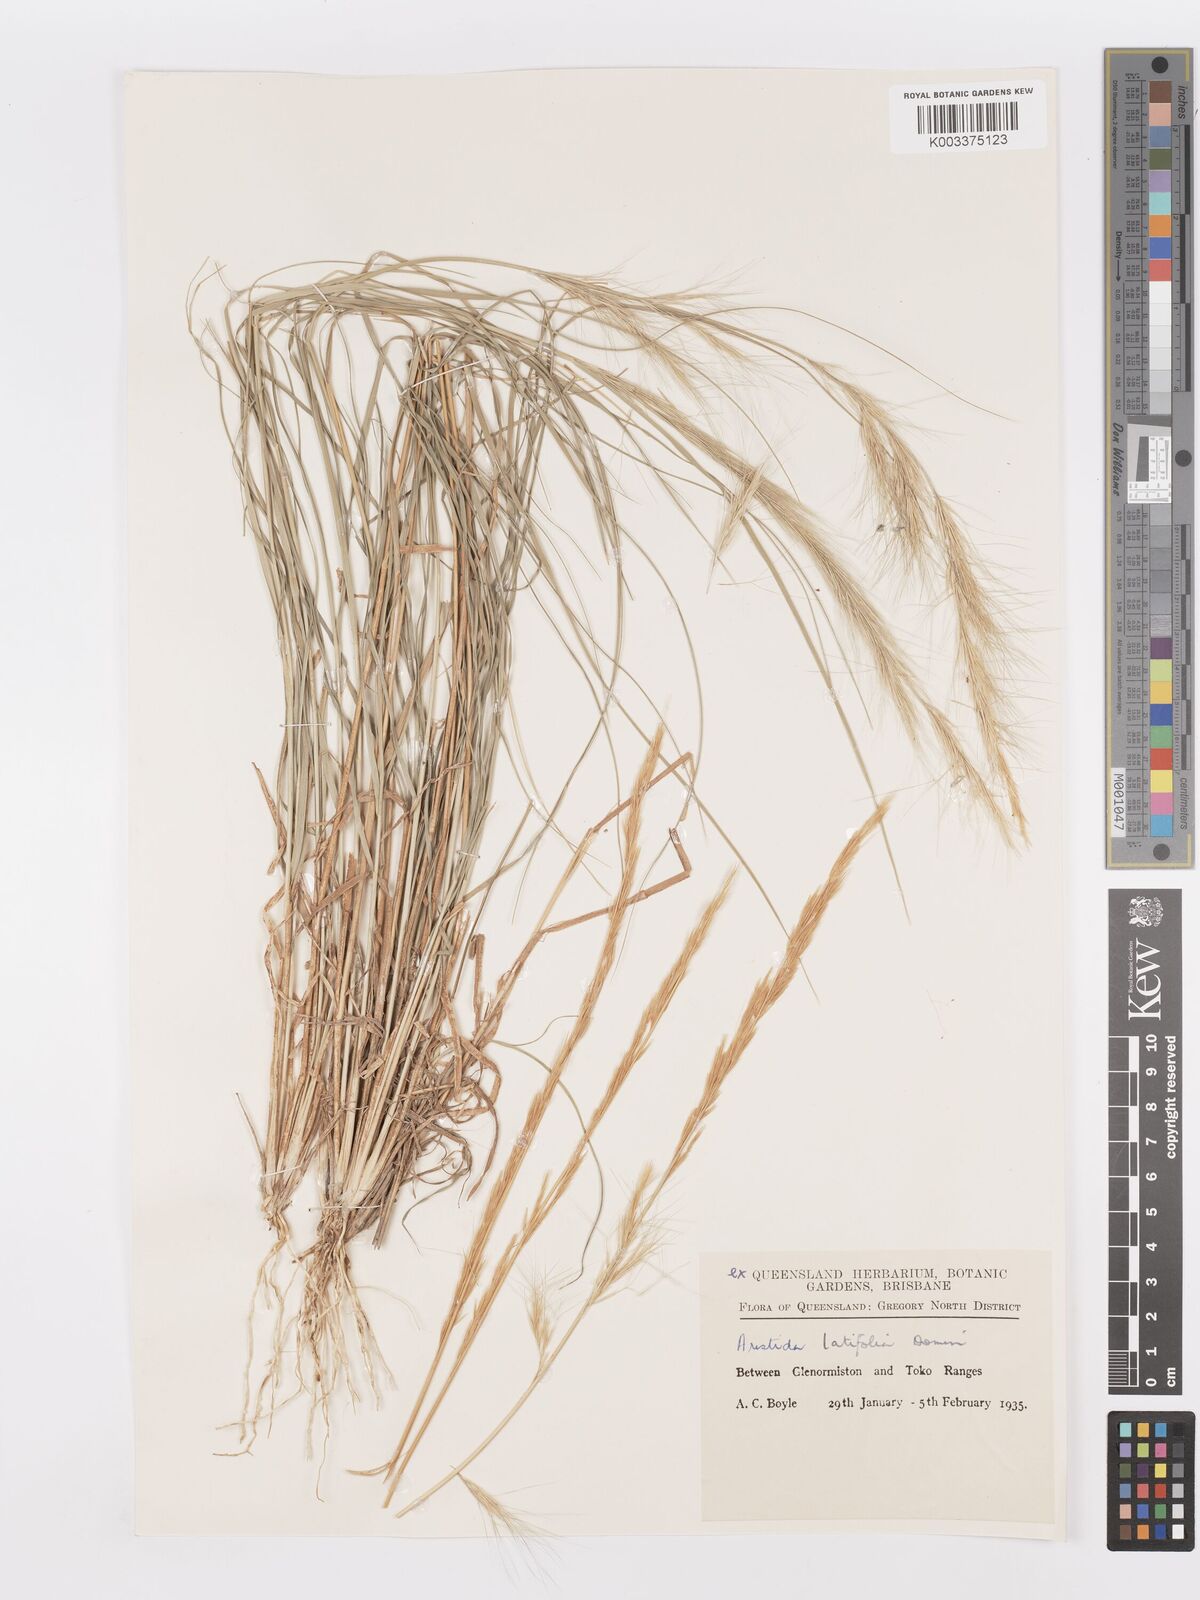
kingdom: Plantae
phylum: Tracheophyta
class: Liliopsida
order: Poales
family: Poaceae
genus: Aristida
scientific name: Aristida latifolia
